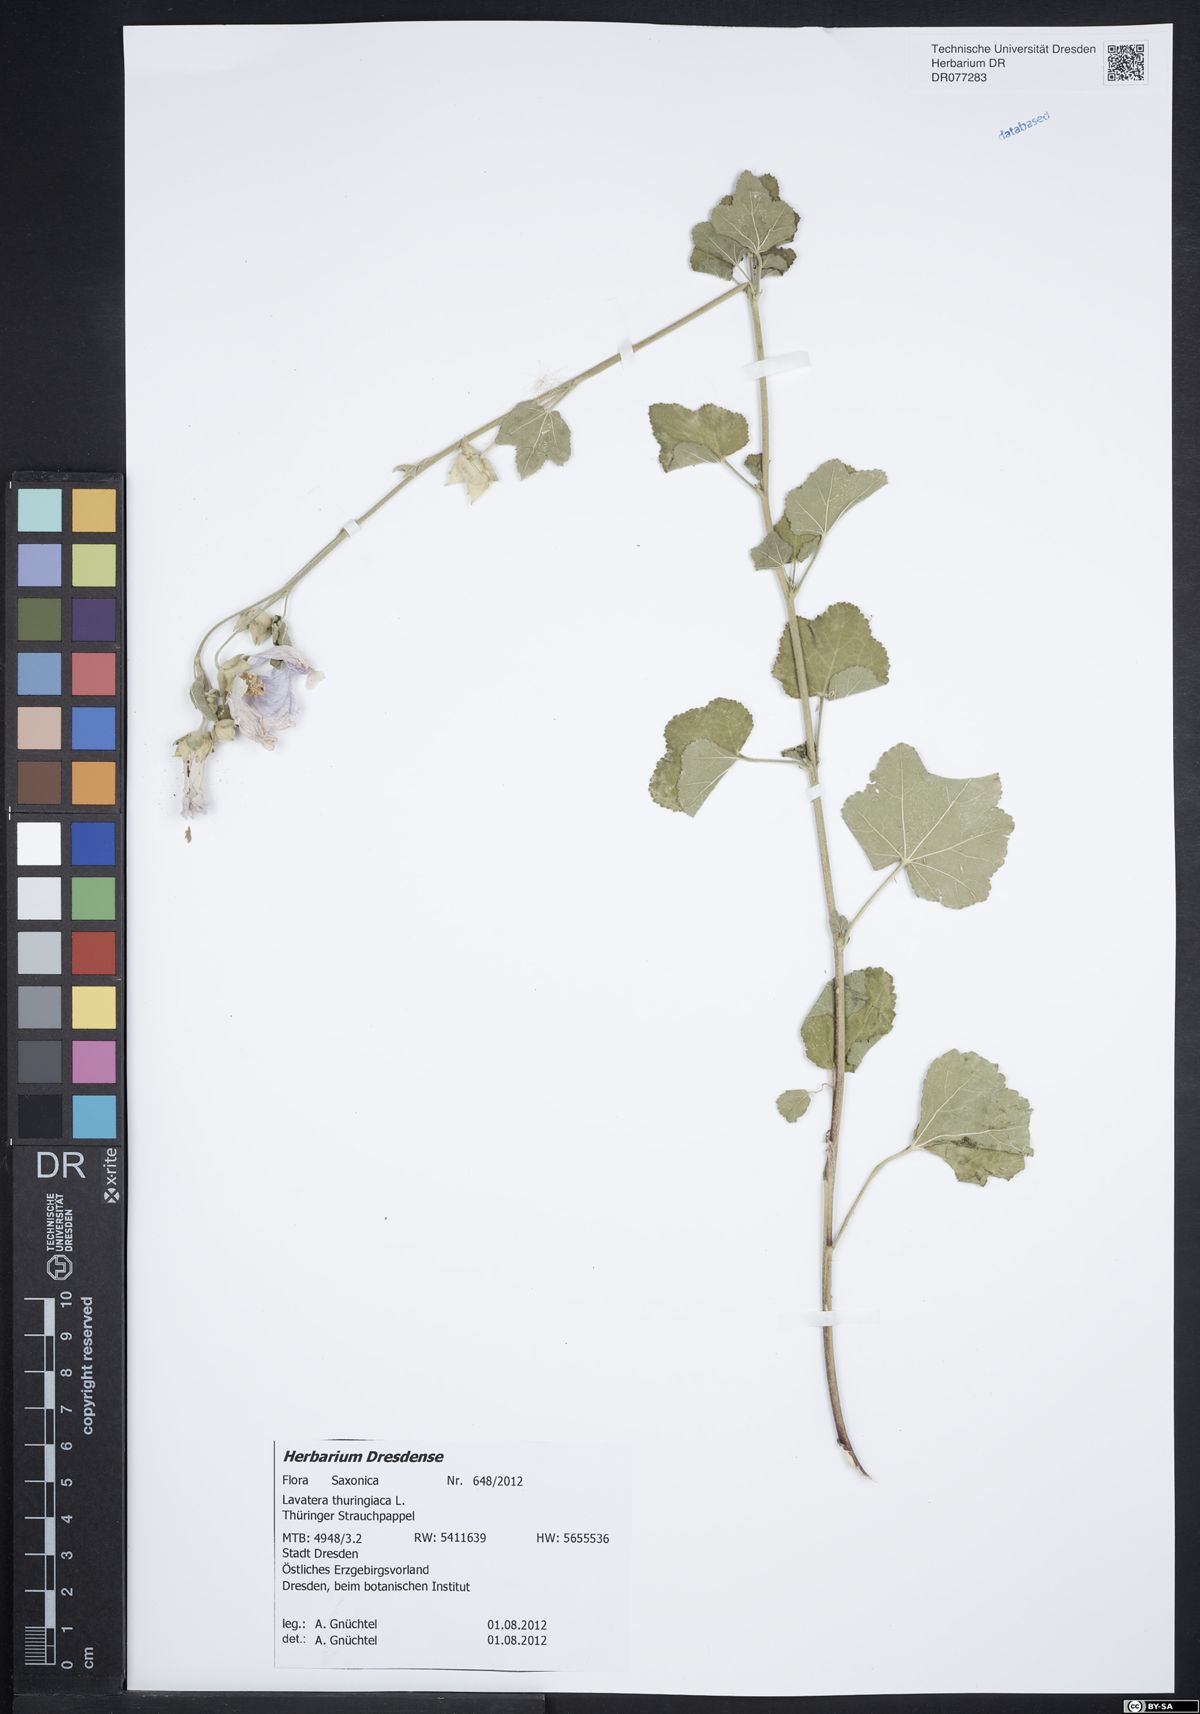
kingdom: Plantae
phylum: Tracheophyta
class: Magnoliopsida
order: Malvales
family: Malvaceae
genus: Malva
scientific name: Malva thuringiaca
